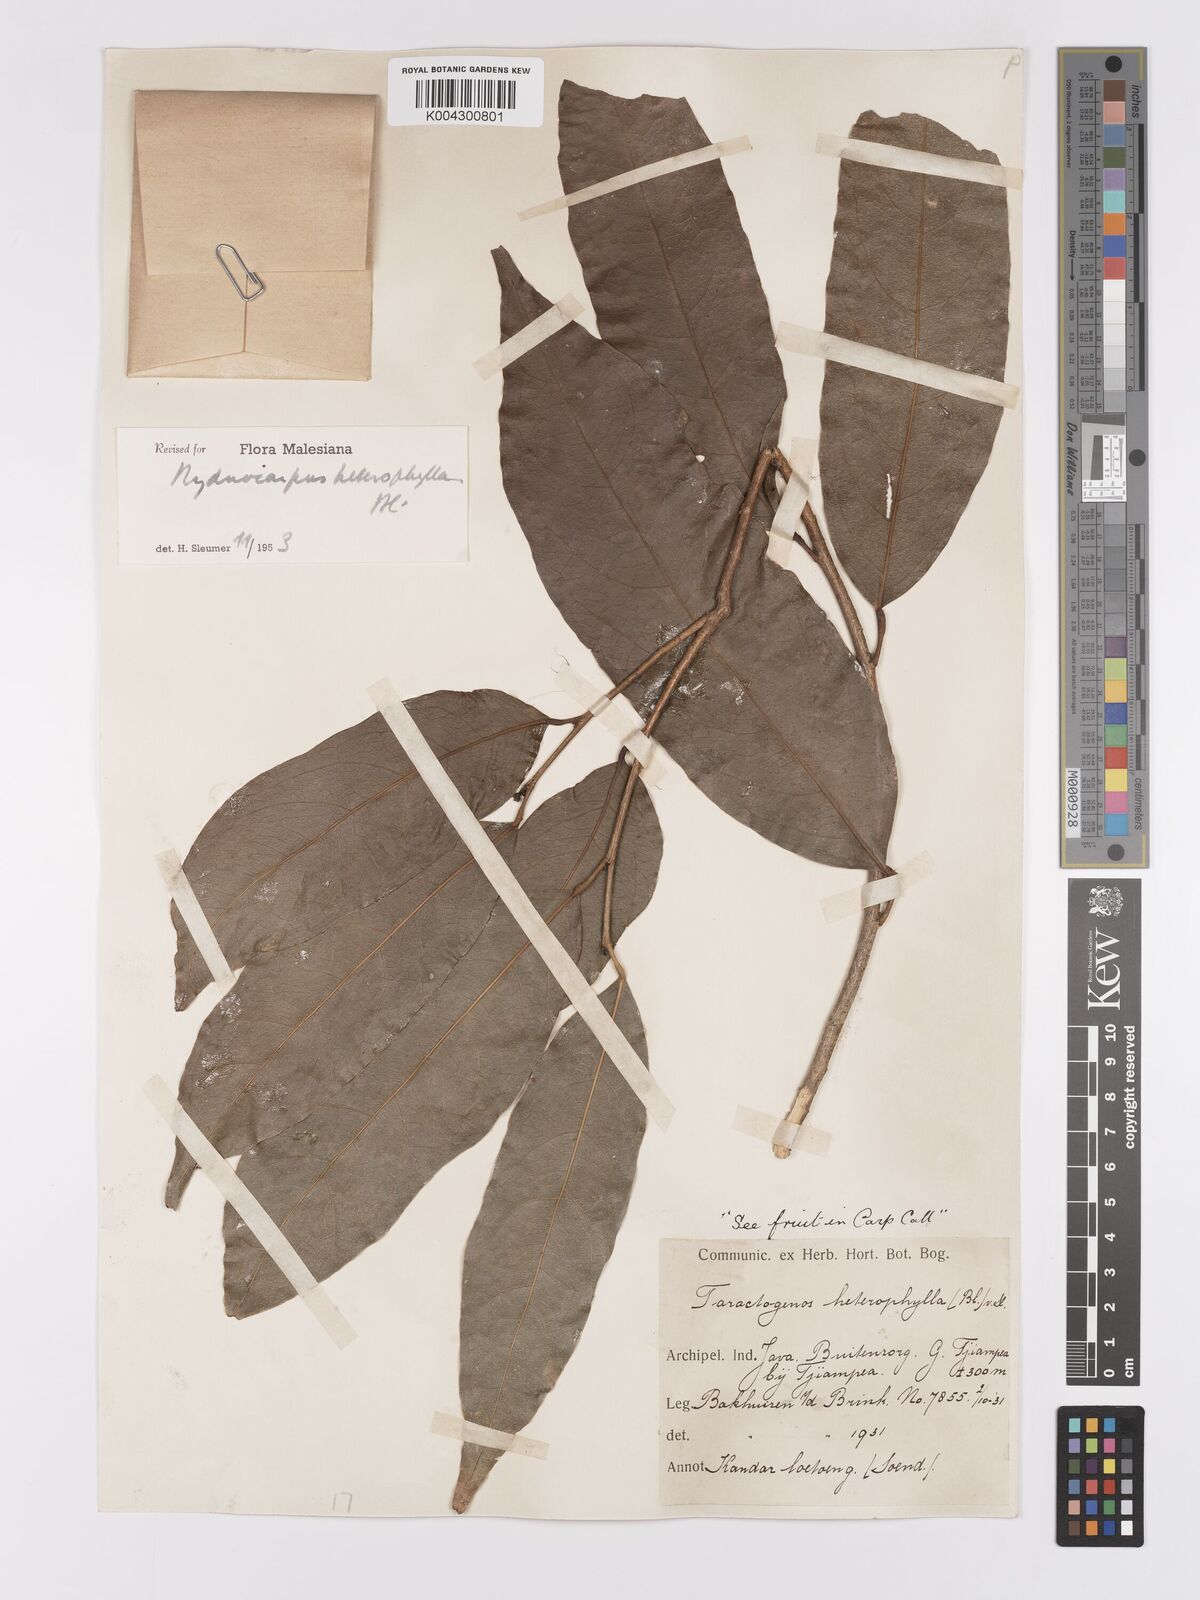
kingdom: Plantae
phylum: Tracheophyta
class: Magnoliopsida
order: Malpighiales
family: Achariaceae
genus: Hydnocarpus
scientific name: Hydnocarpus heterophyllus
